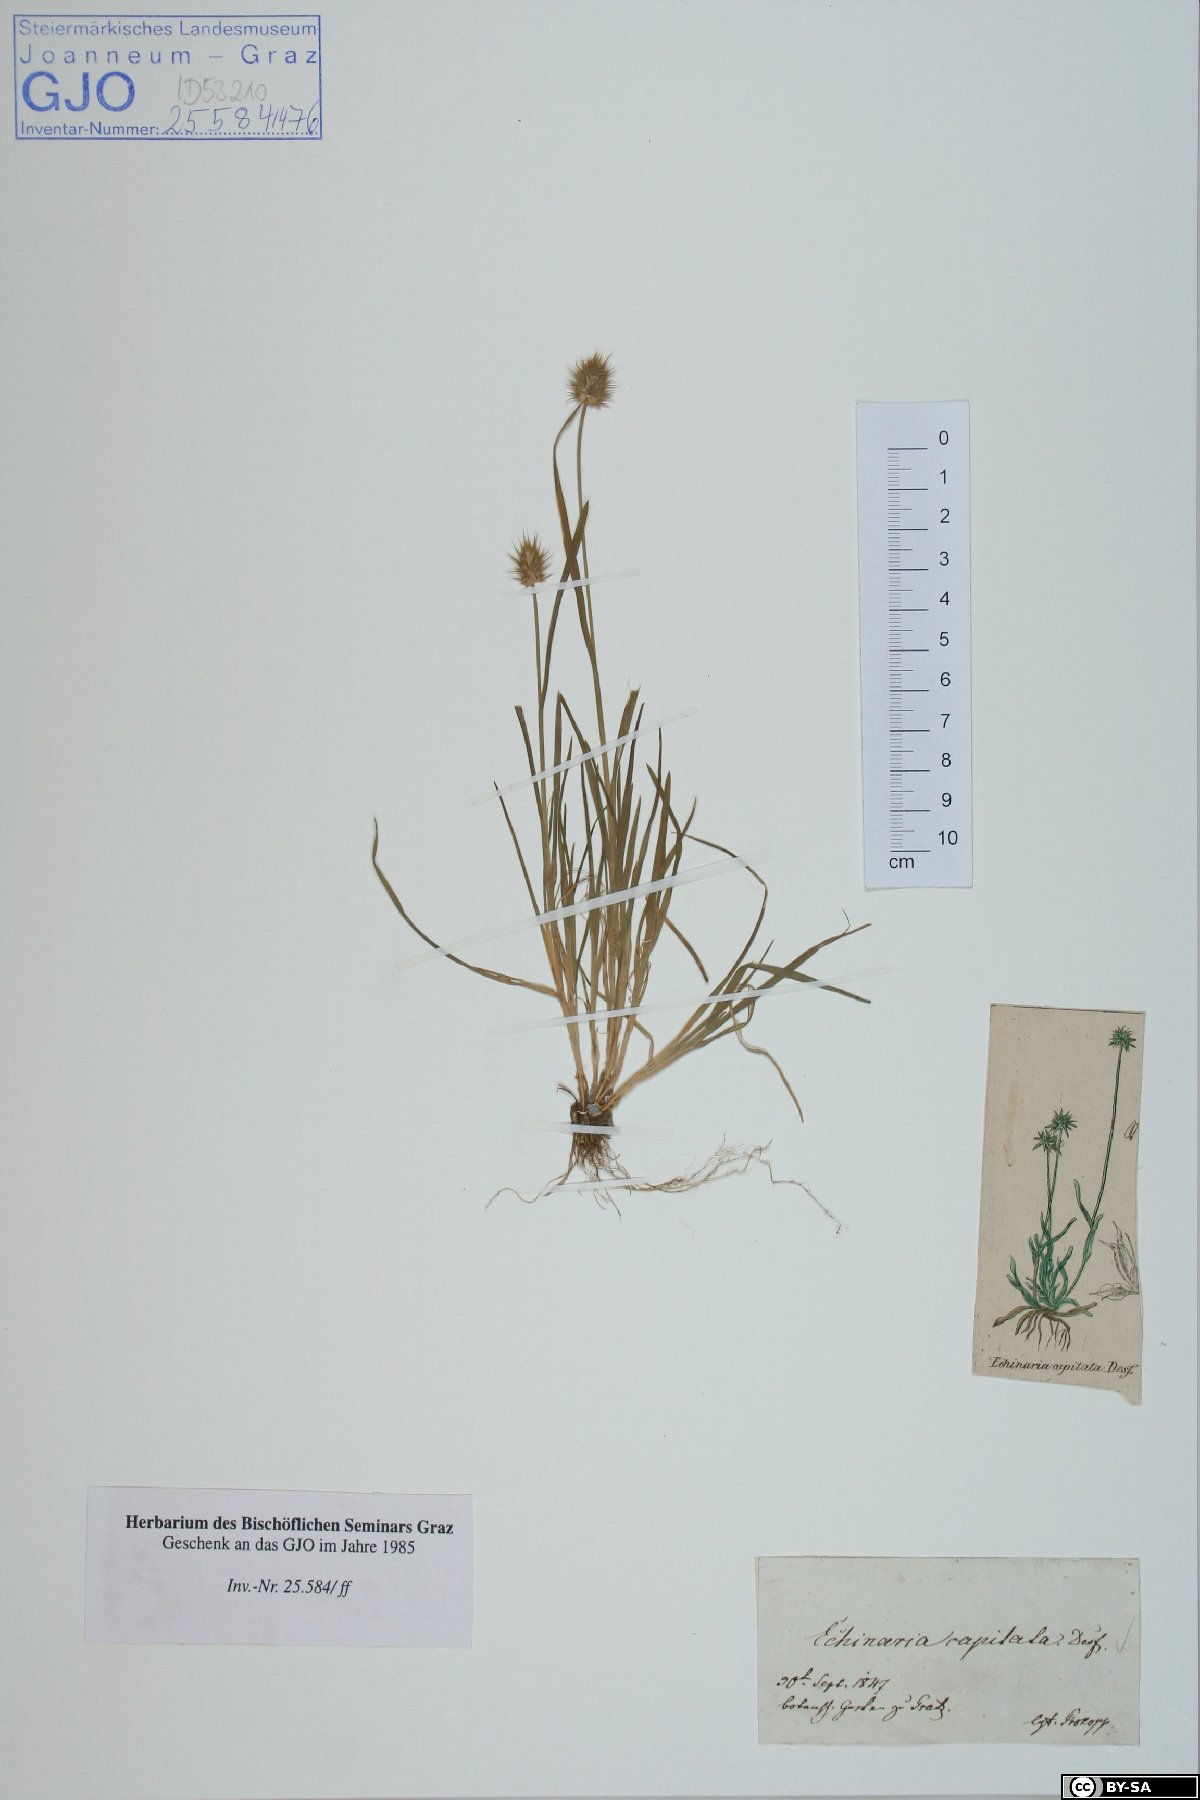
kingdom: Plantae
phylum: Tracheophyta
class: Liliopsida
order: Poales
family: Poaceae
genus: Echinaria
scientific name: Echinaria capitata
